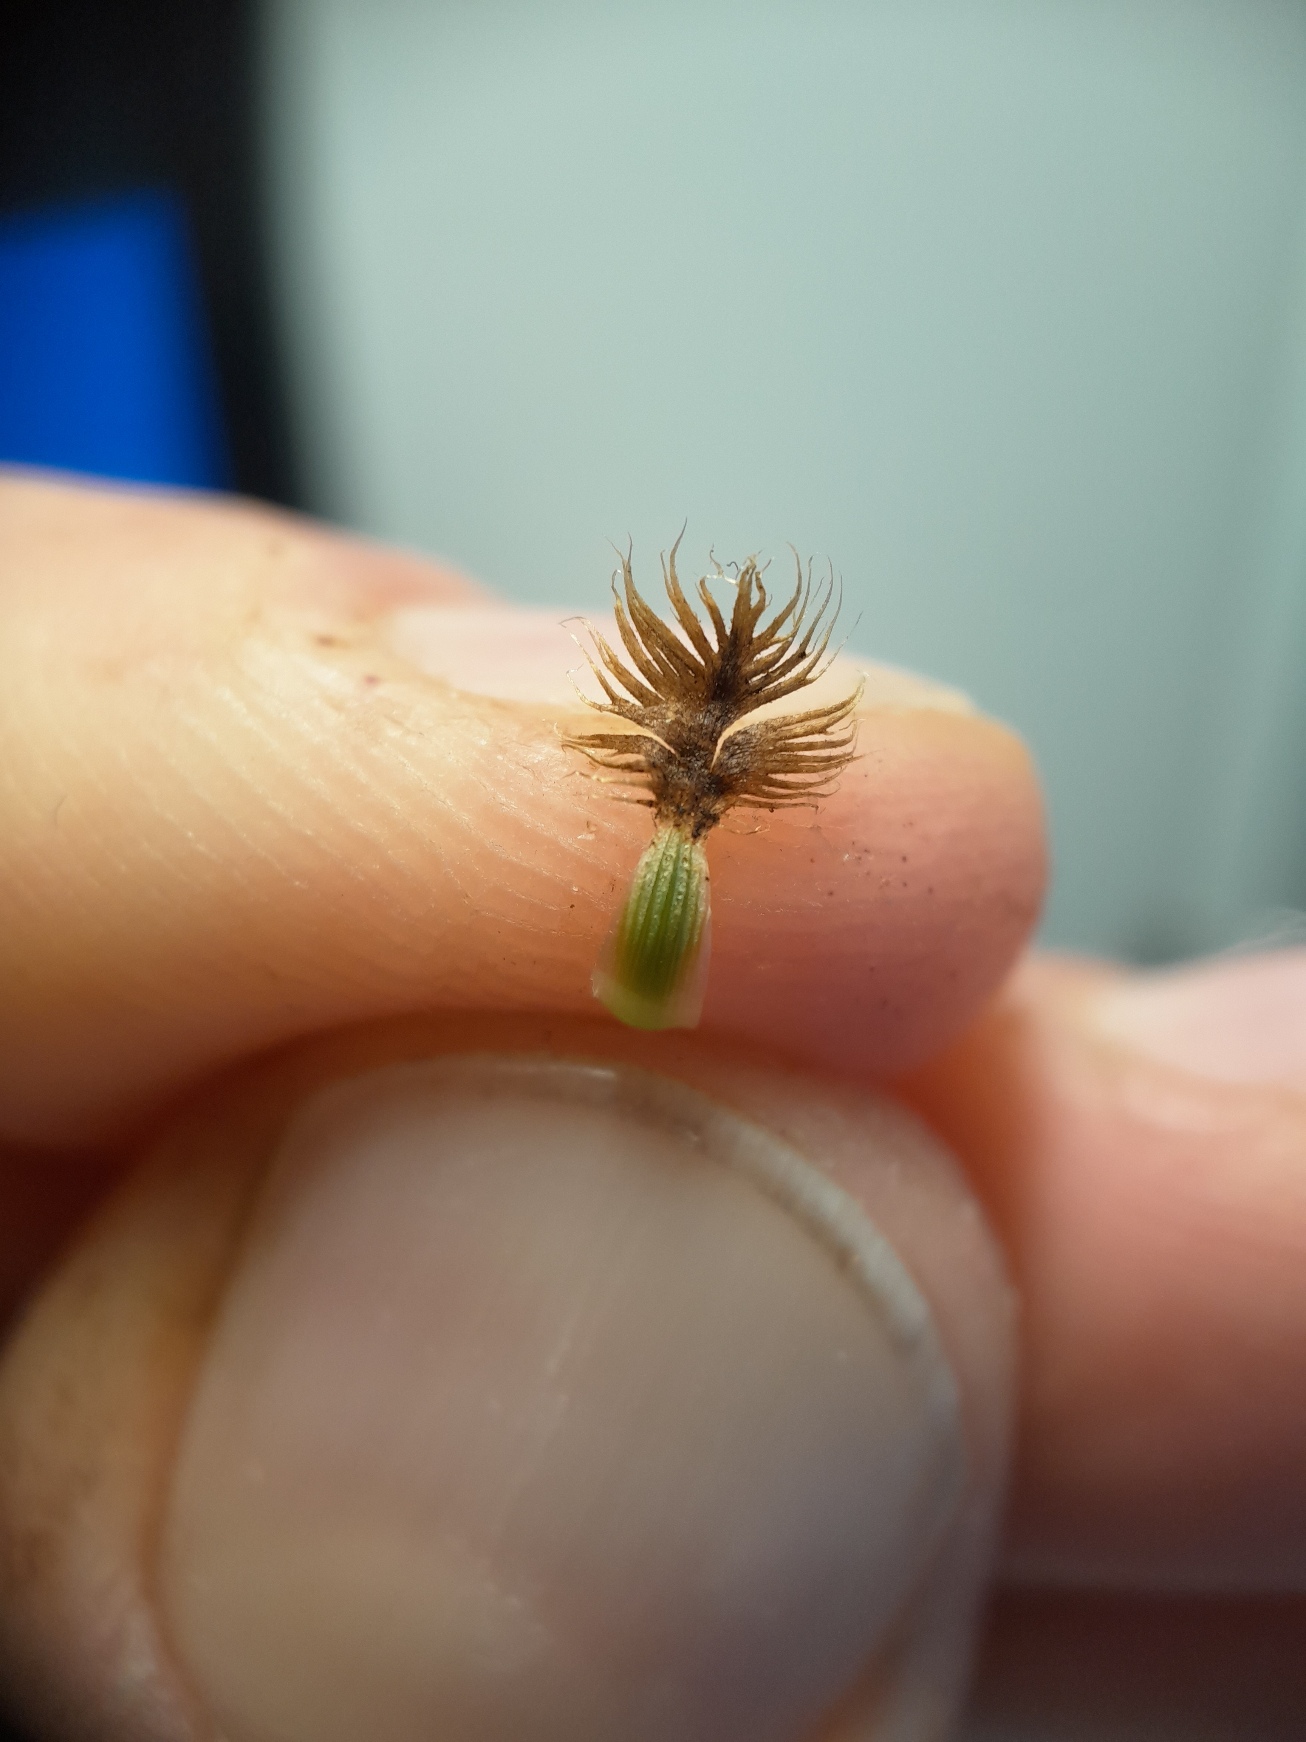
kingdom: Plantae
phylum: Tracheophyta
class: Magnoliopsida
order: Asterales
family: Asteraceae
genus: Centaurea
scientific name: Centaurea moncktonii
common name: Hybrid-knopurt
